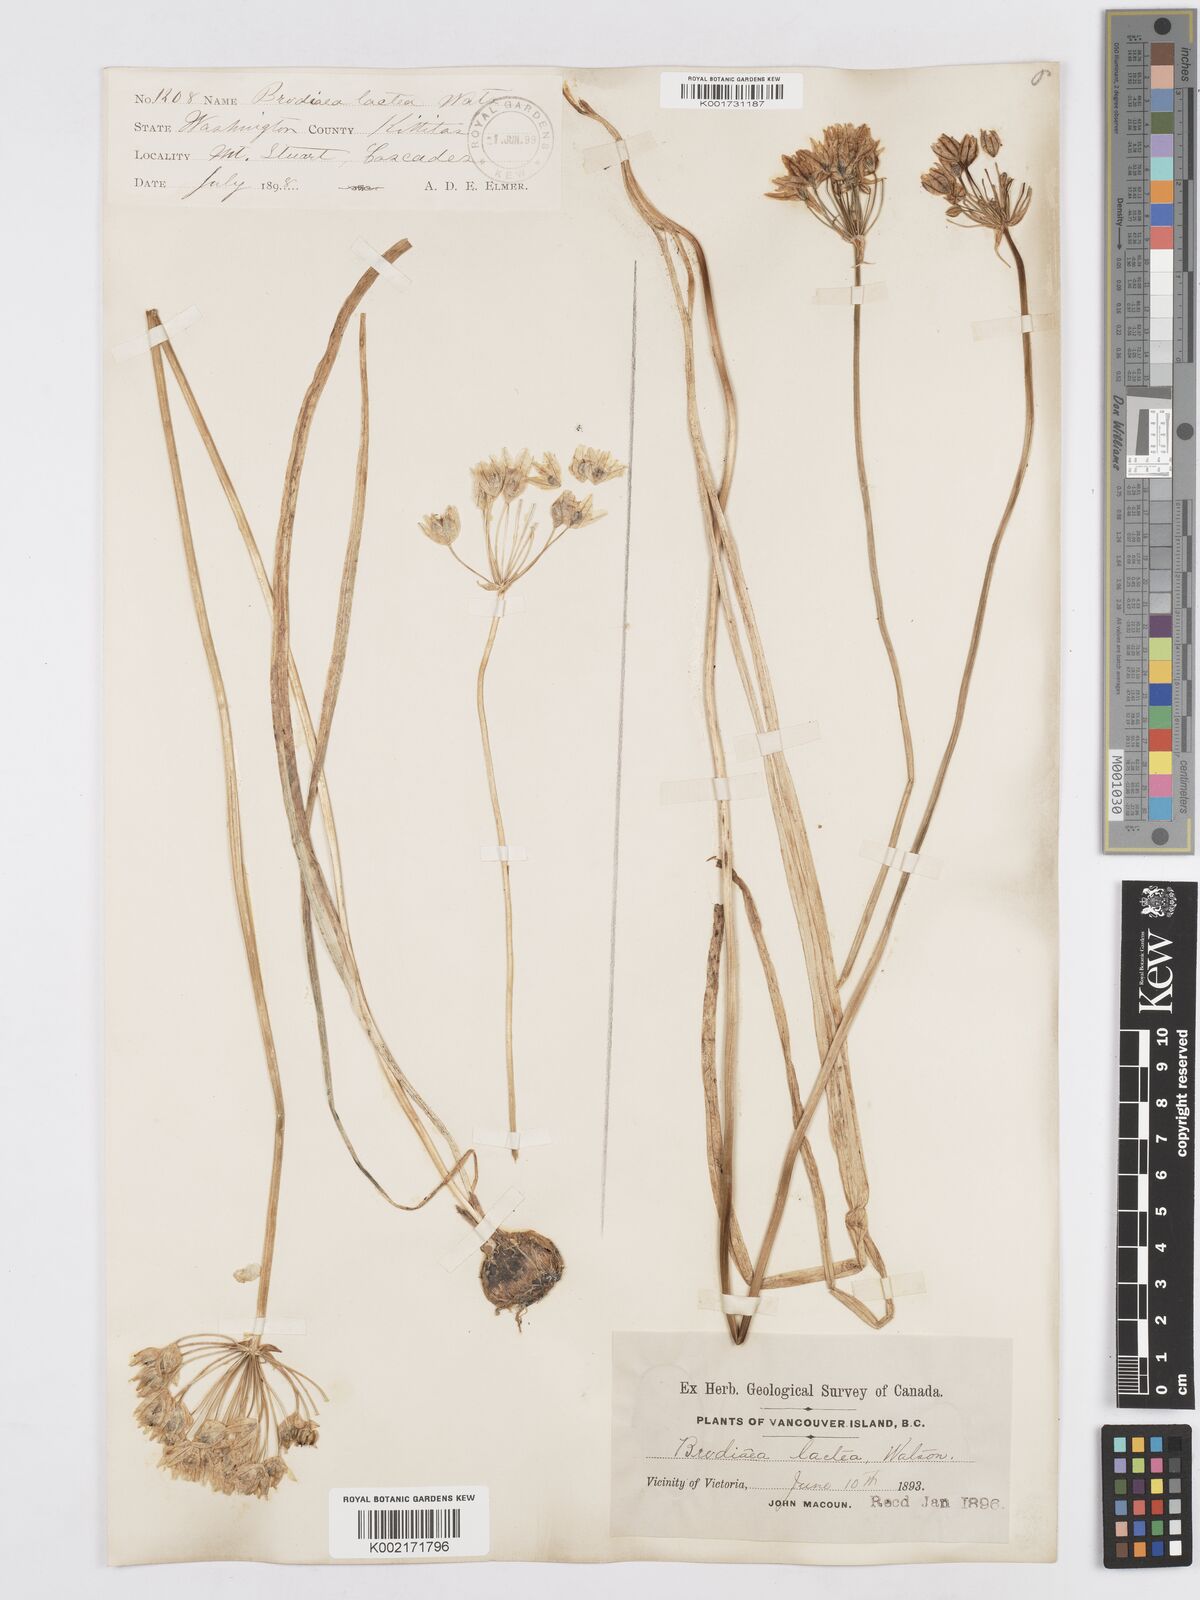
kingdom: Plantae
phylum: Tracheophyta
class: Liliopsida
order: Asparagales
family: Asparagaceae
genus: Triteleia
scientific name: Triteleia hyacinthina
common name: White brodiaea
